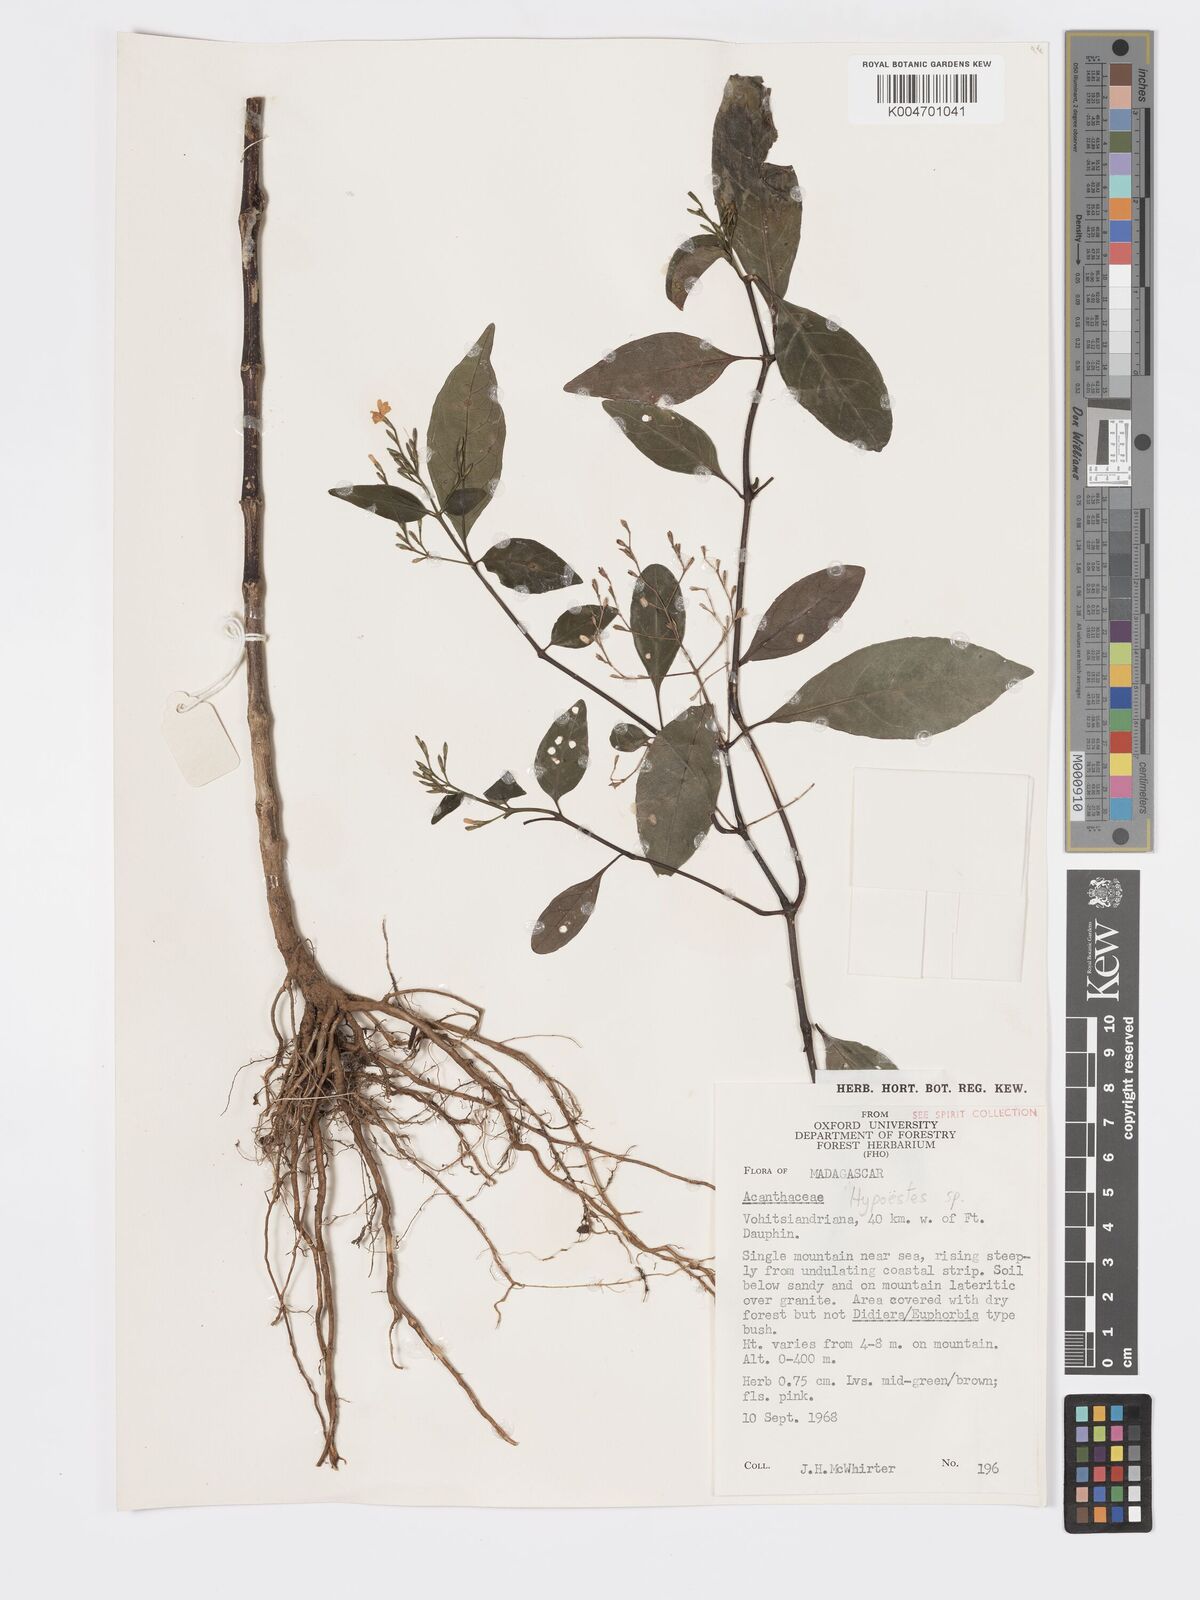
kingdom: Plantae
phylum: Tracheophyta
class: Magnoliopsida
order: Lamiales
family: Acanthaceae
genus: Hypoestes
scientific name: Hypoestes
